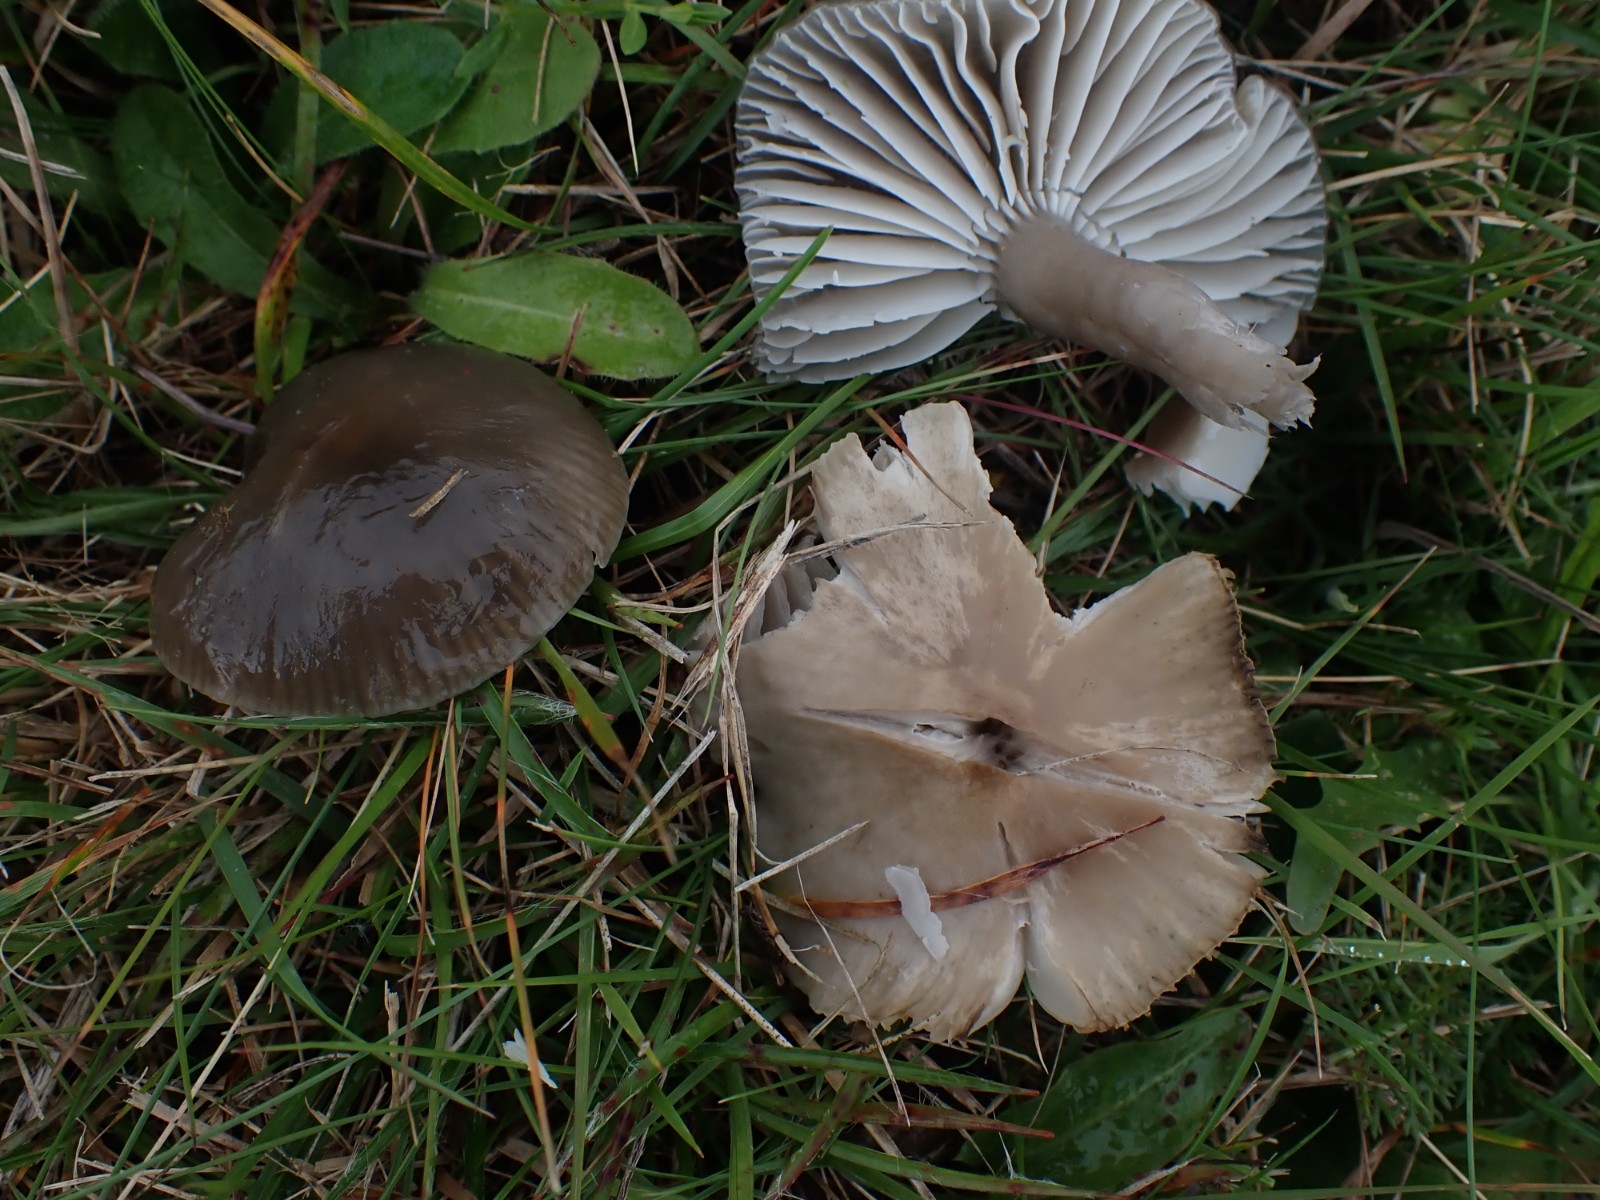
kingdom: Fungi
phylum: Basidiomycota
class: Agaricomycetes
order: Agaricales
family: Hygrophoraceae
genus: Gliophorus
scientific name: Gliophorus irrigatus
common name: slimet vokshat
